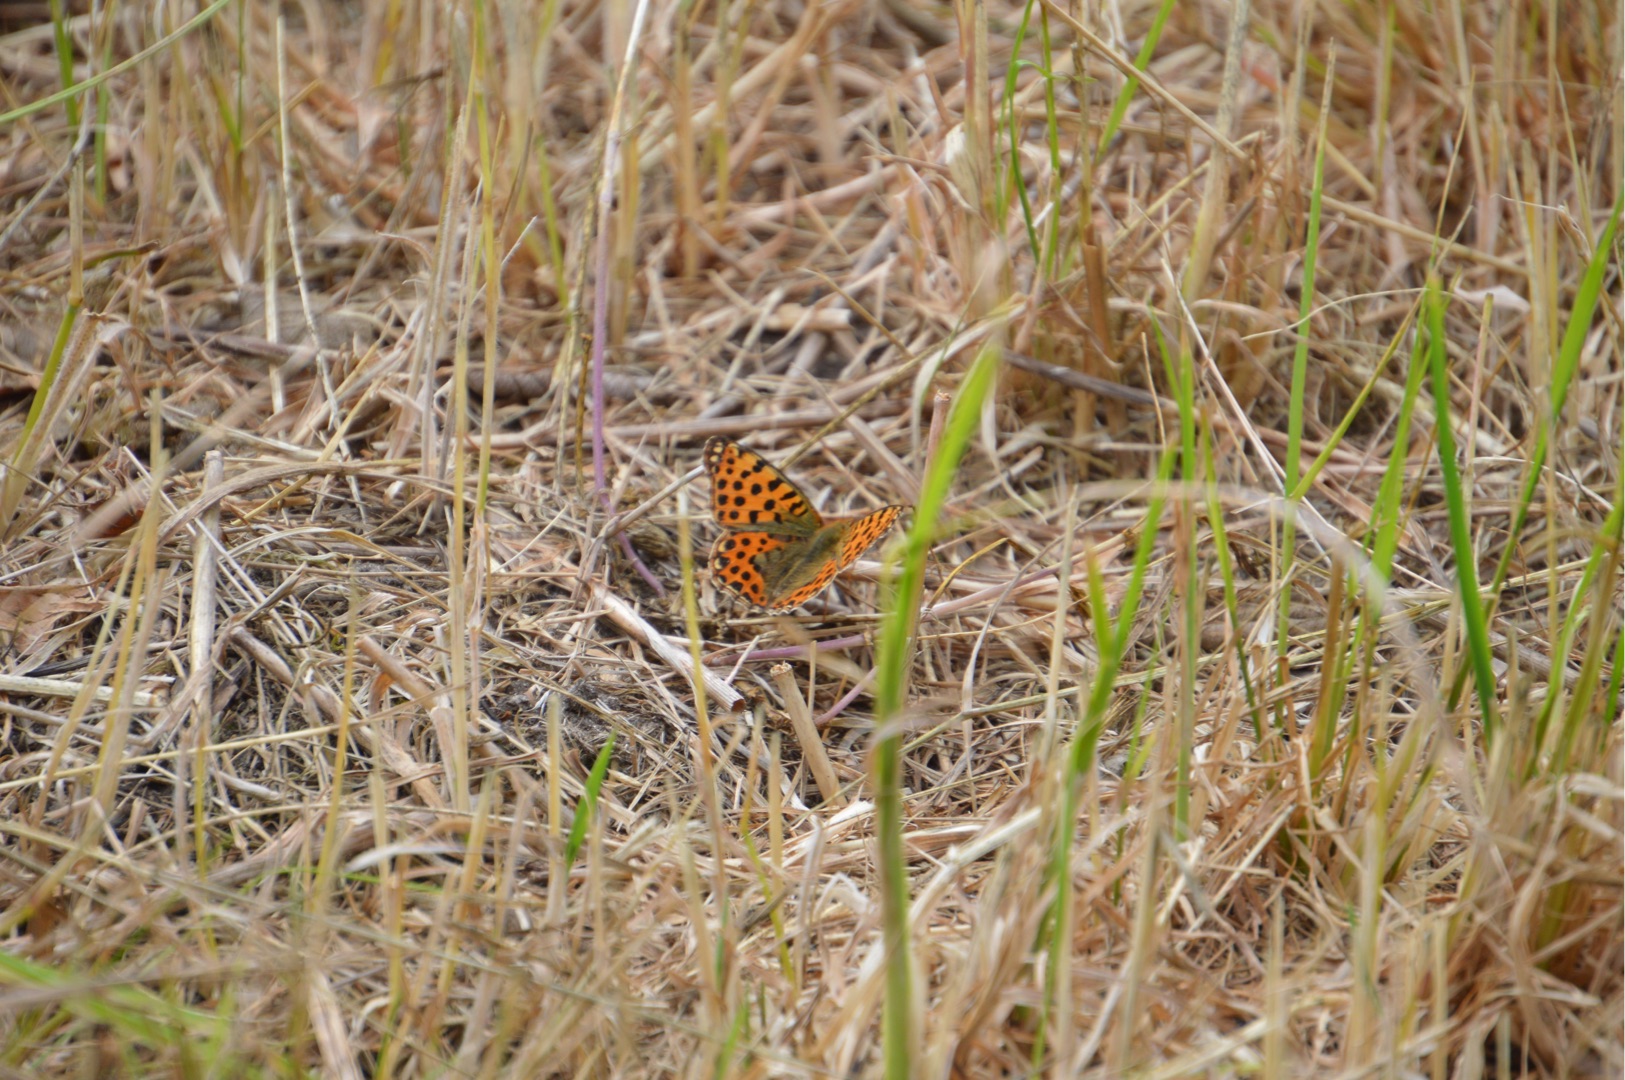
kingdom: Animalia
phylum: Arthropoda
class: Insecta
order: Lepidoptera
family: Nymphalidae
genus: Issoria
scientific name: Issoria lathonia
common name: Storplettet perlemorsommerfugl
